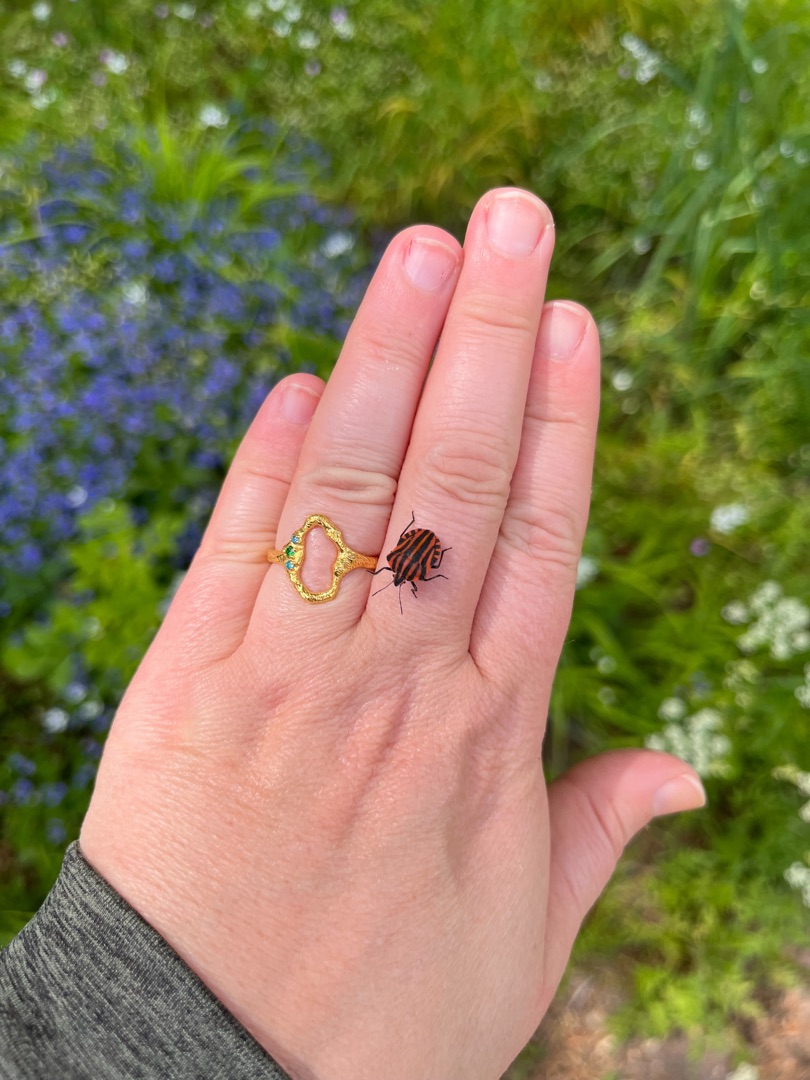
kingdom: Animalia
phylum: Arthropoda
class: Insecta
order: Hemiptera
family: Pentatomidae
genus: Graphosoma
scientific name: Graphosoma italicum
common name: Stribetæge
